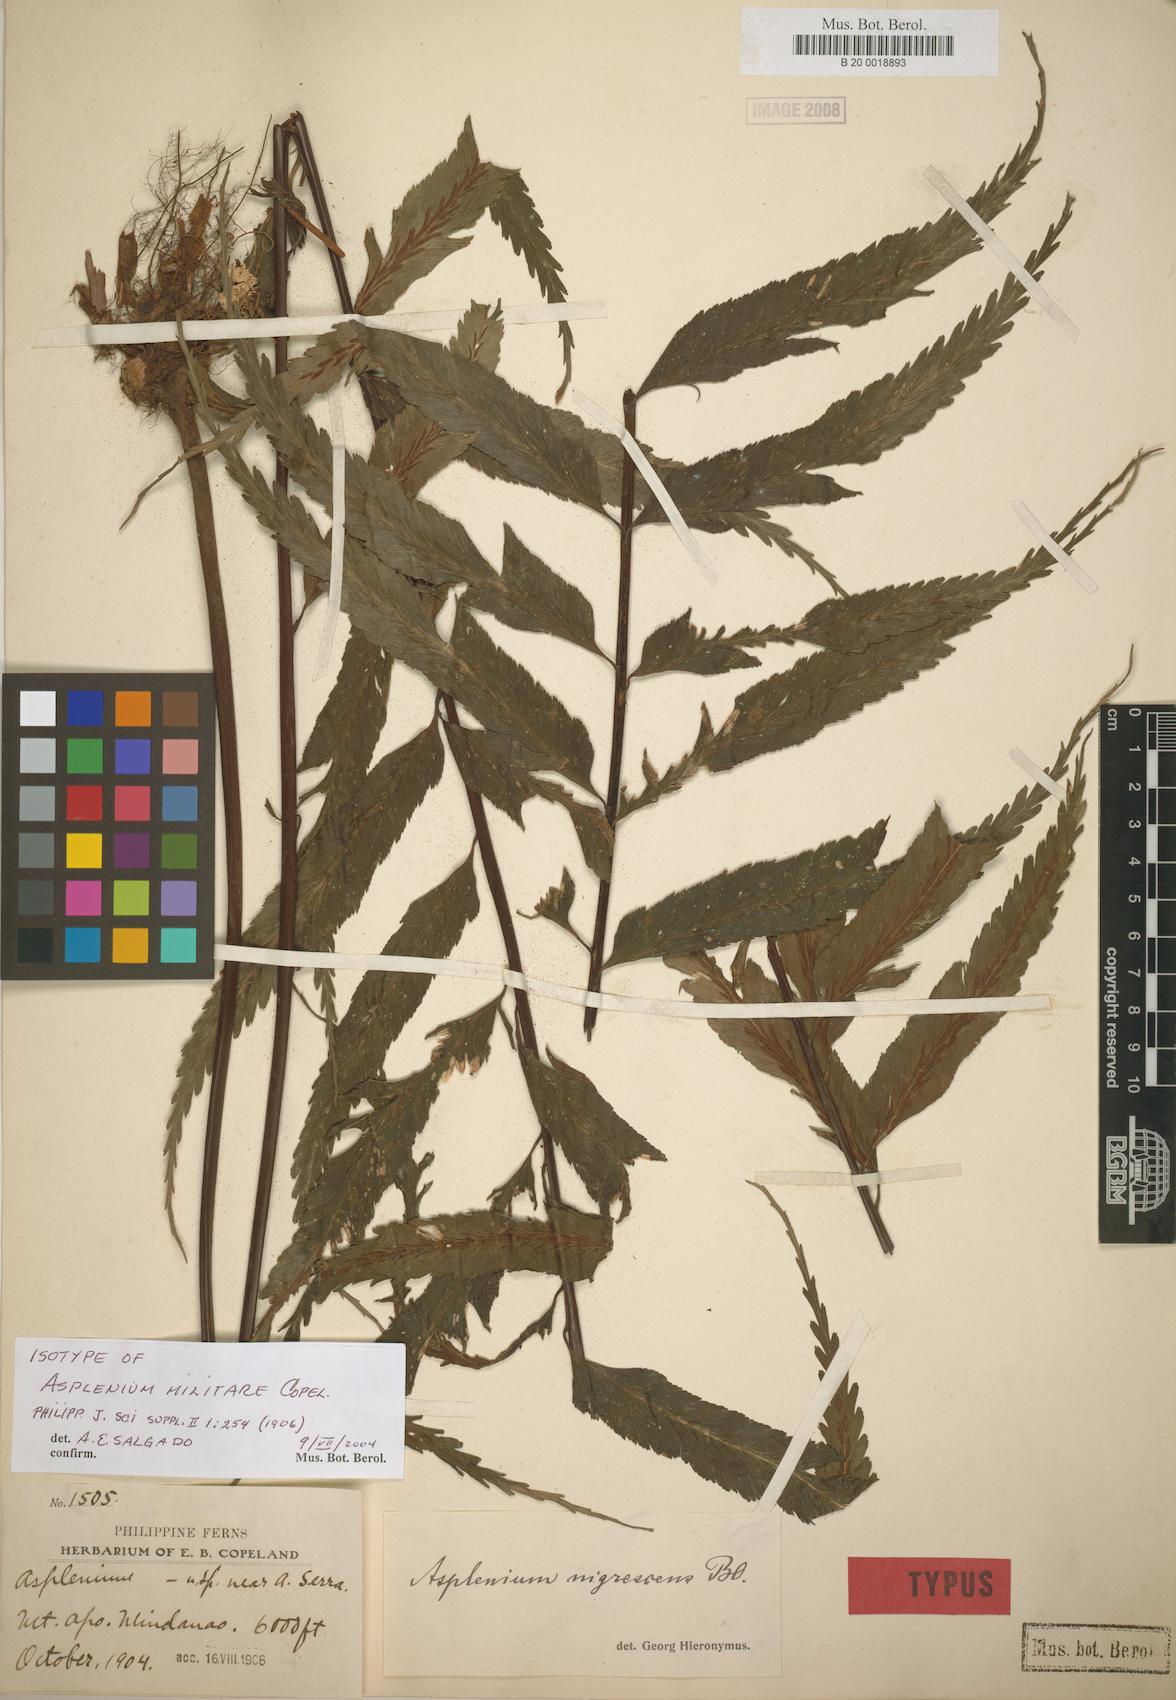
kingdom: Plantae
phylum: Tracheophyta
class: Polypodiopsida
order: Polypodiales
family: Aspleniaceae
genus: Asplenium
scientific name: Asplenium militare
